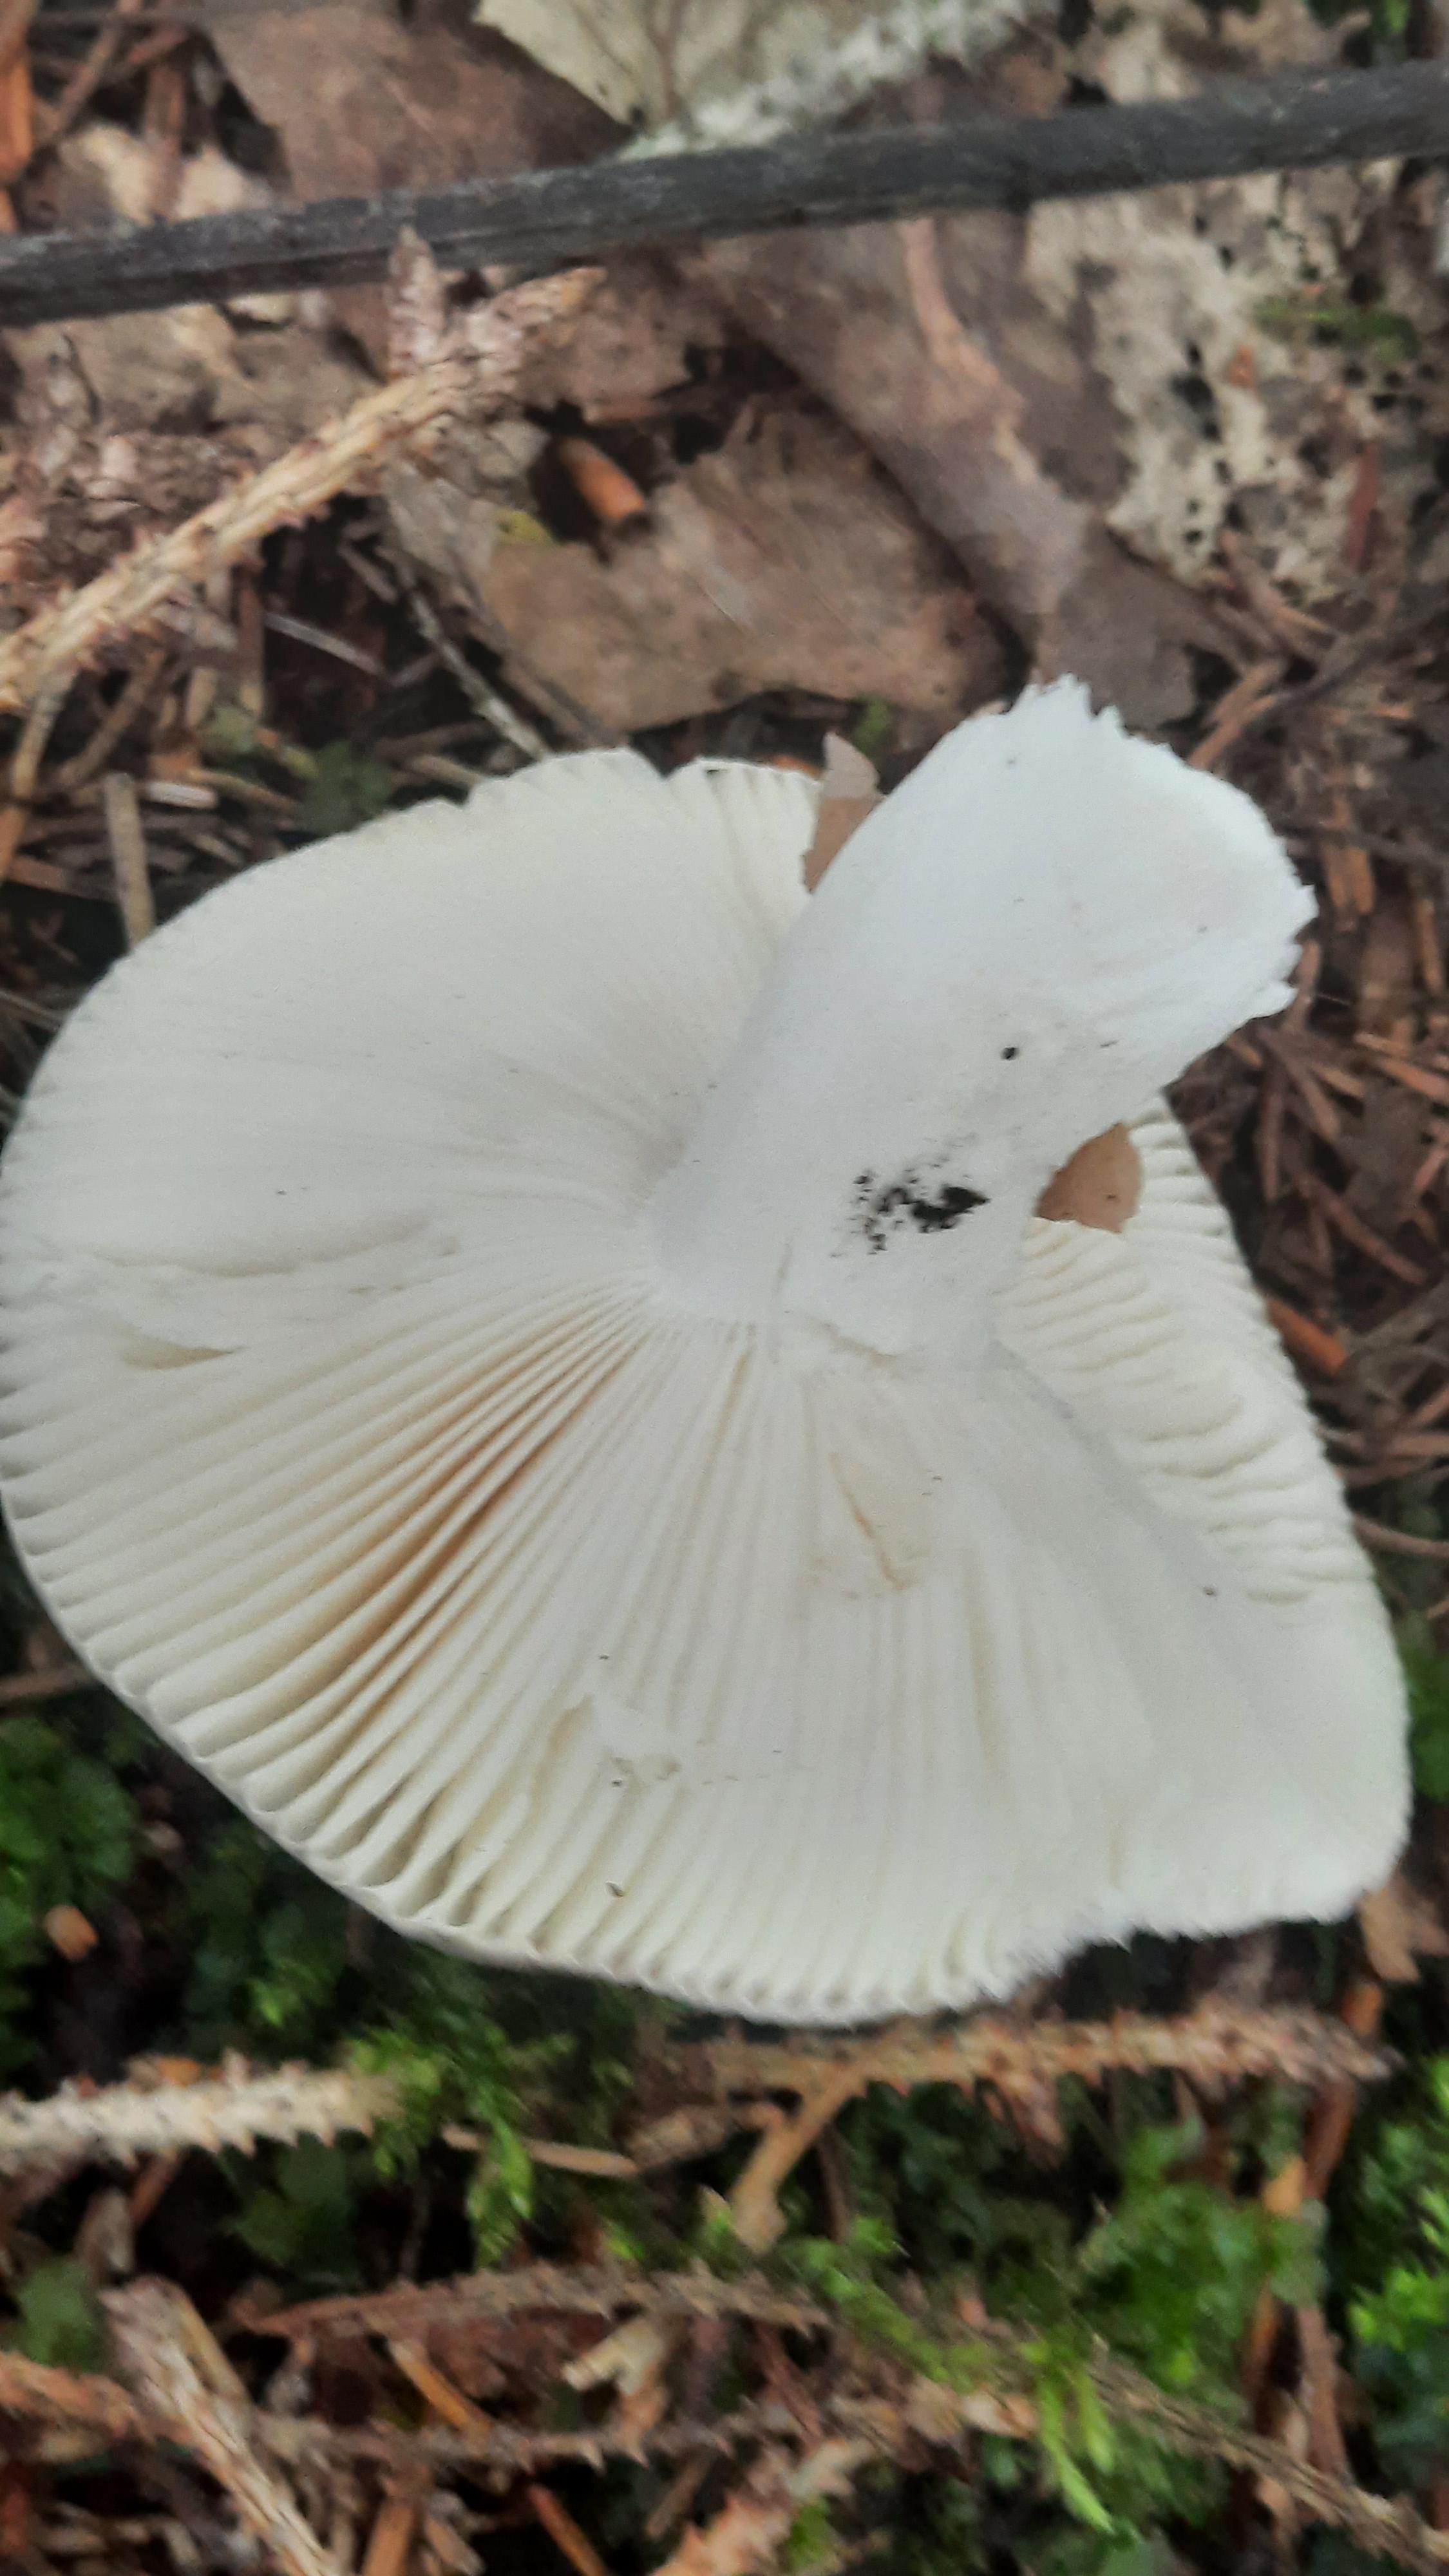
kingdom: Fungi
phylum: Basidiomycota
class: Agaricomycetes
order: Russulales
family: Russulaceae
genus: Russula
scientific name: Russula cyanoxantha
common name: broget skørhat
